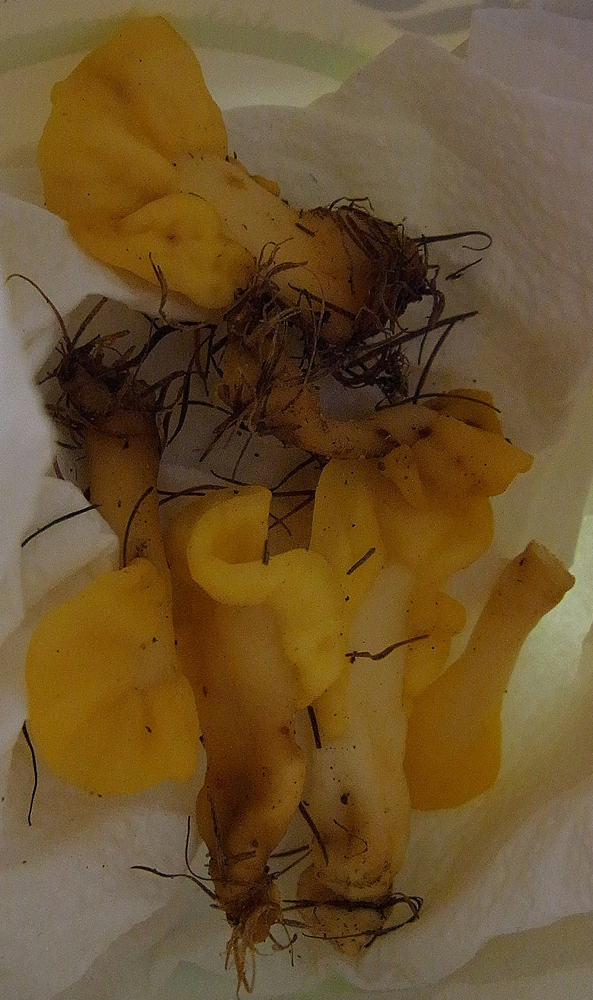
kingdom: Fungi
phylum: Ascomycota
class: Leotiomycetes
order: Rhytismatales
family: Cudoniaceae
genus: Spathularia
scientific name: Spathularia flavida
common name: Yellow fan
